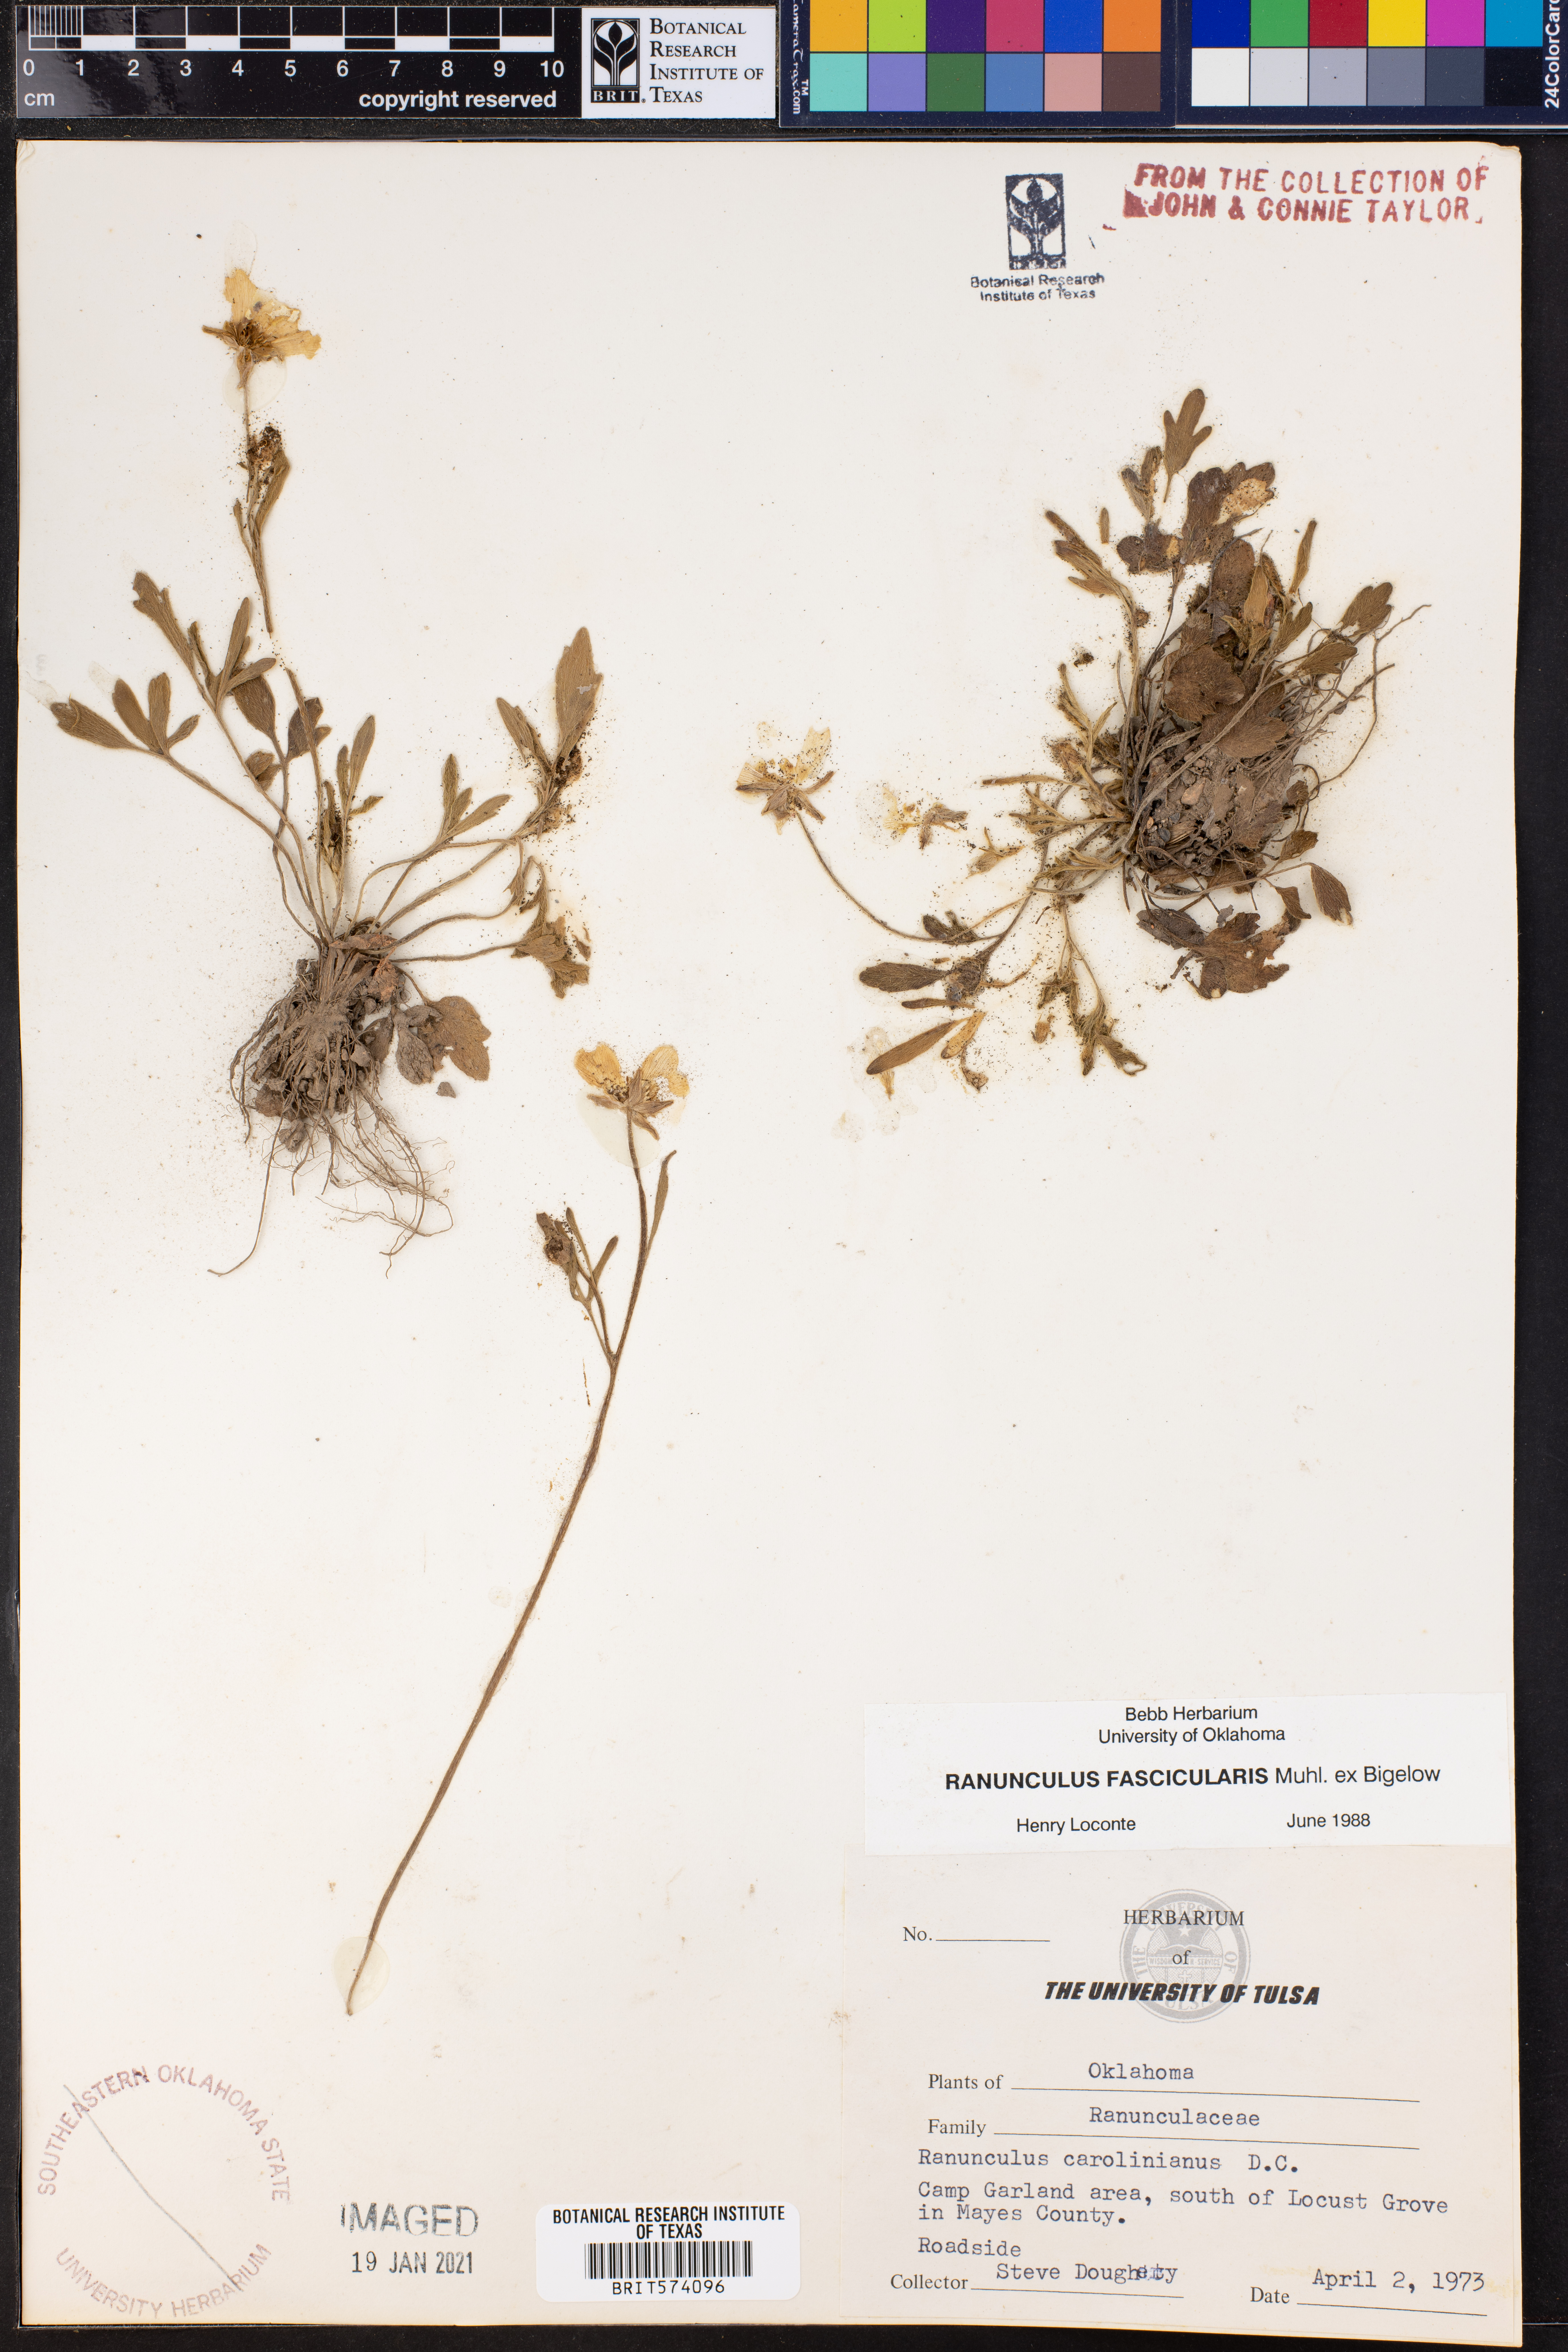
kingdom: Plantae
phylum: Tracheophyta
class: Magnoliopsida
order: Ranunculales
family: Ranunculaceae
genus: Ranunculus
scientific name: Ranunculus fascicularis
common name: Early buttercup
